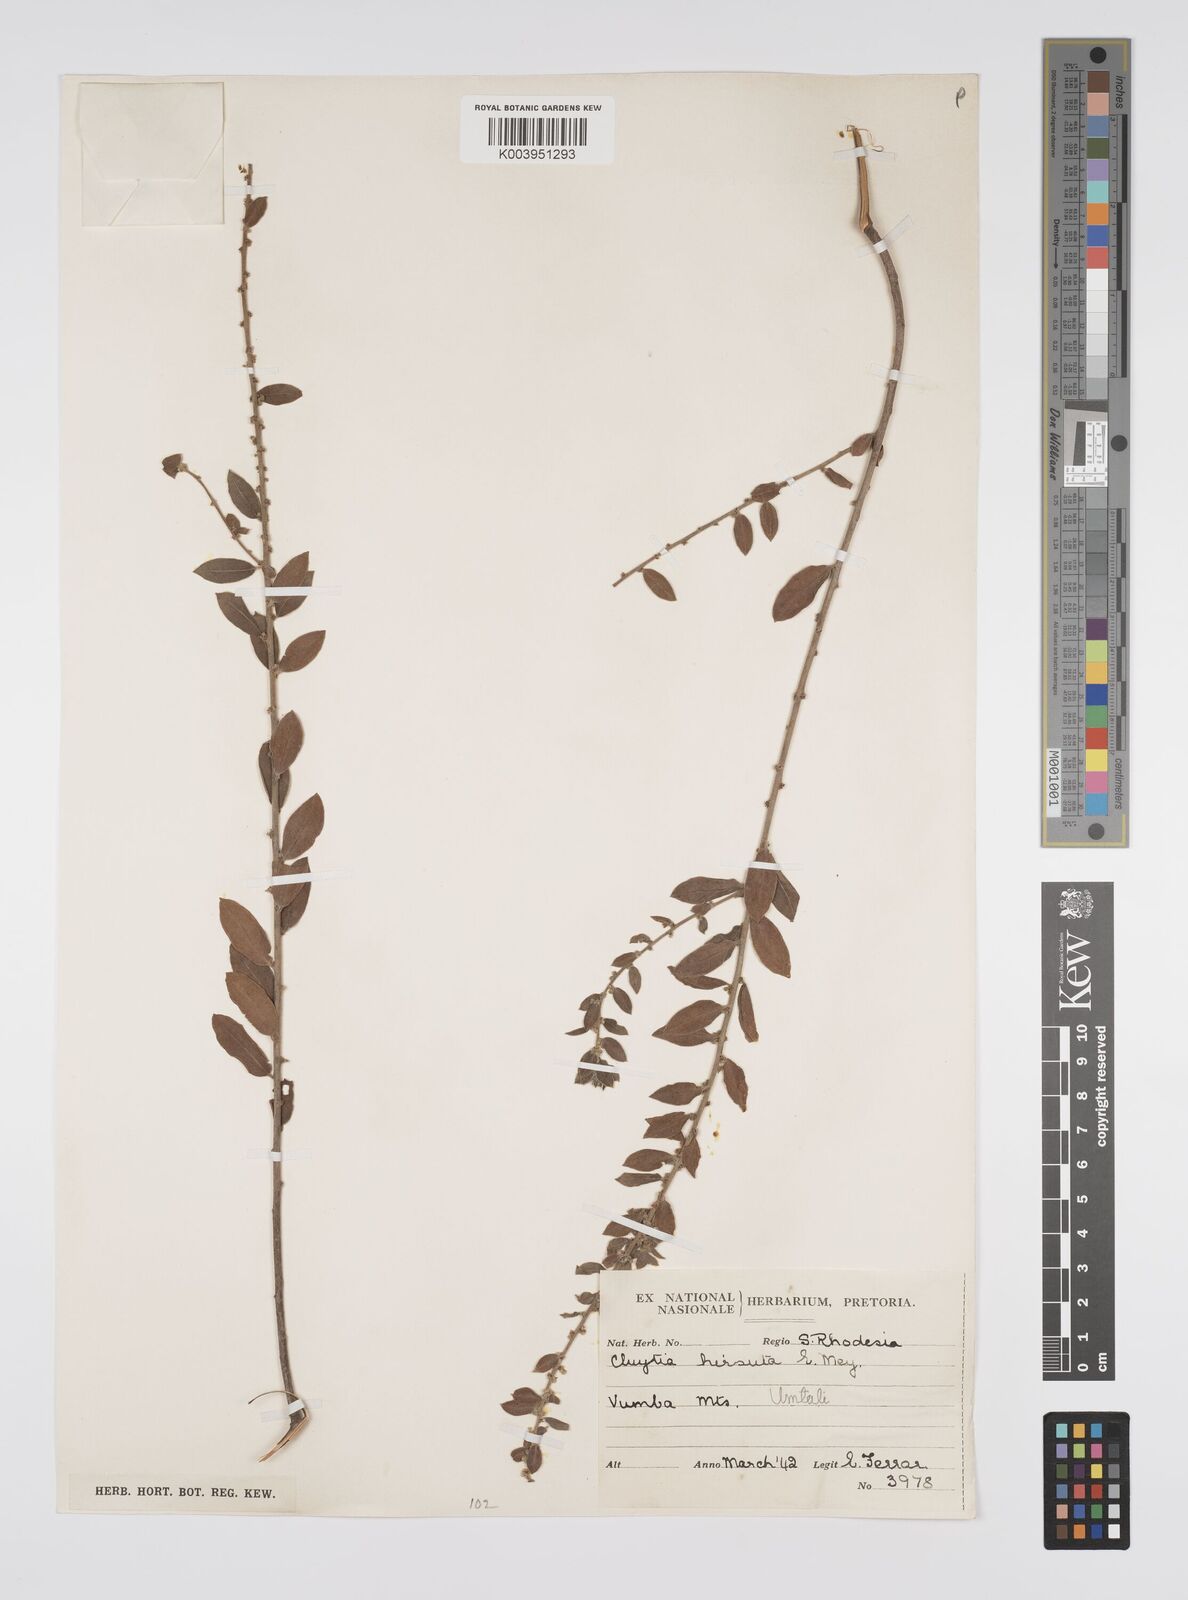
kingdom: Plantae
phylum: Tracheophyta
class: Magnoliopsida
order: Malpighiales
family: Peraceae
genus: Clutia
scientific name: Clutia hirsuta
